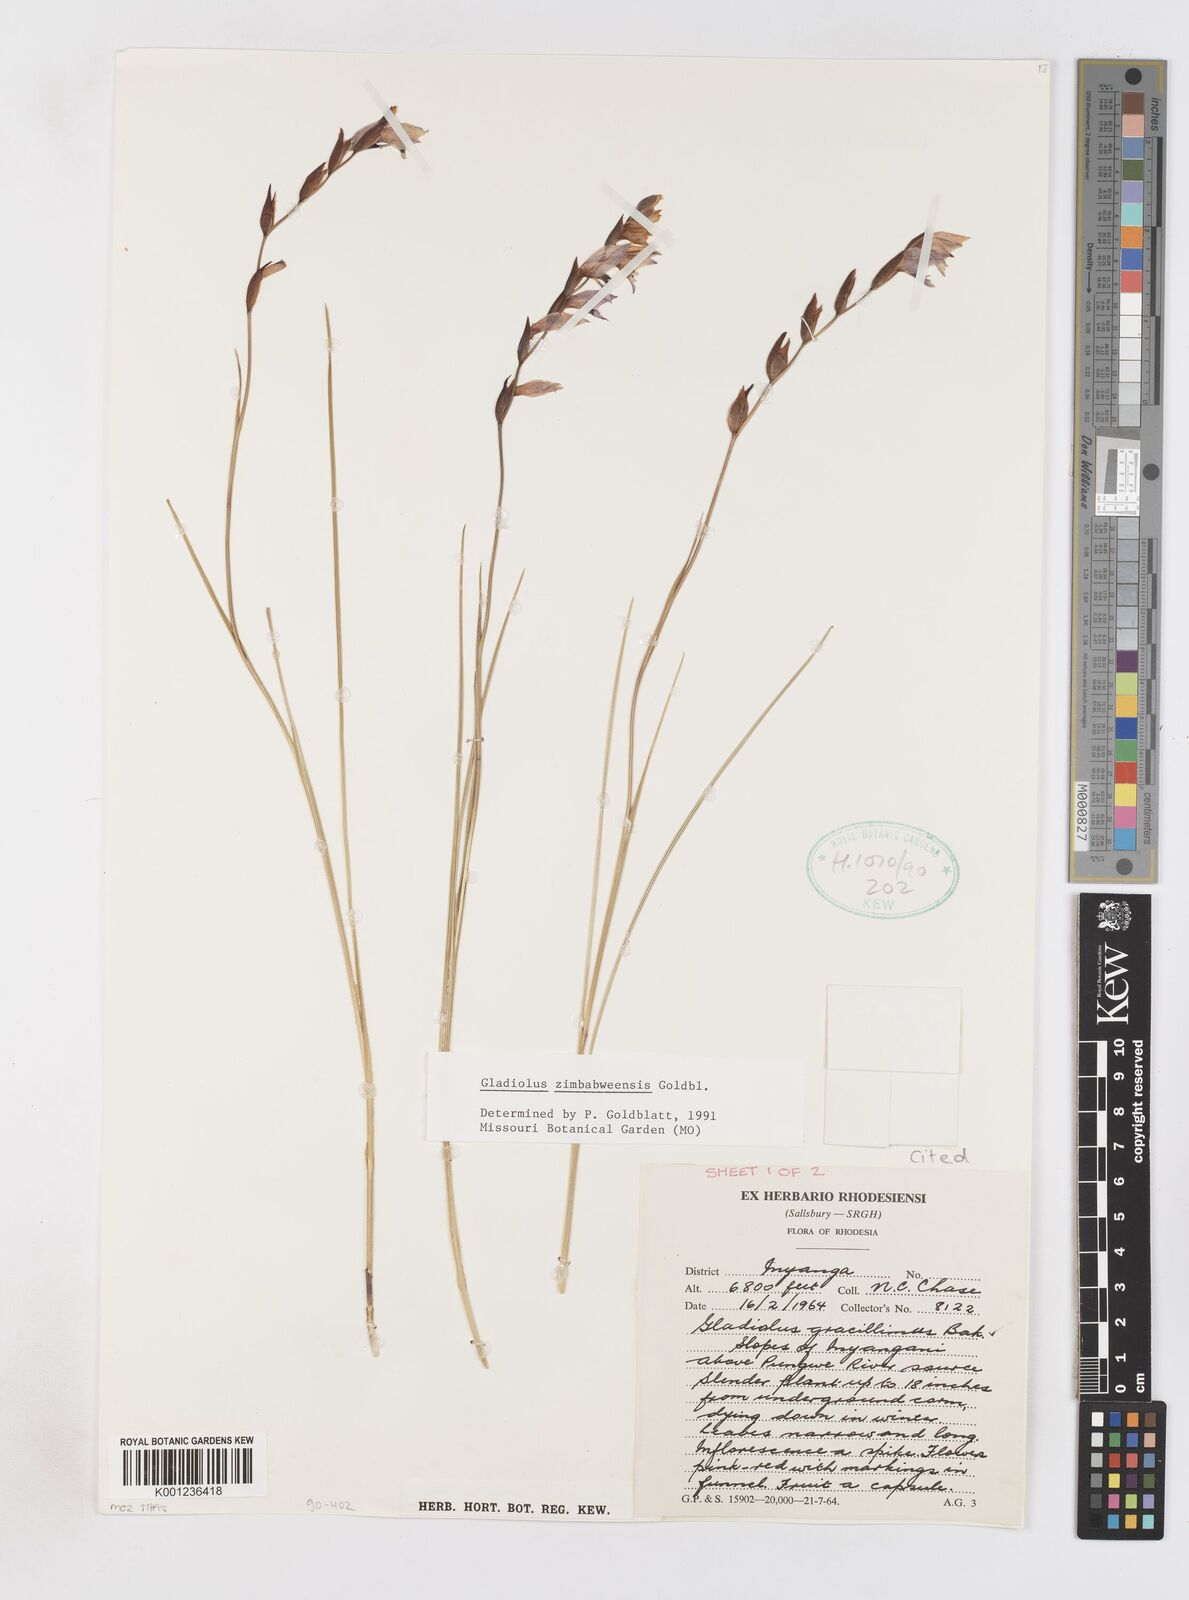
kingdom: Plantae
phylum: Tracheophyta
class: Liliopsida
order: Asparagales
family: Iridaceae
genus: Gladiolus
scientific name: Gladiolus zimbabweensis
